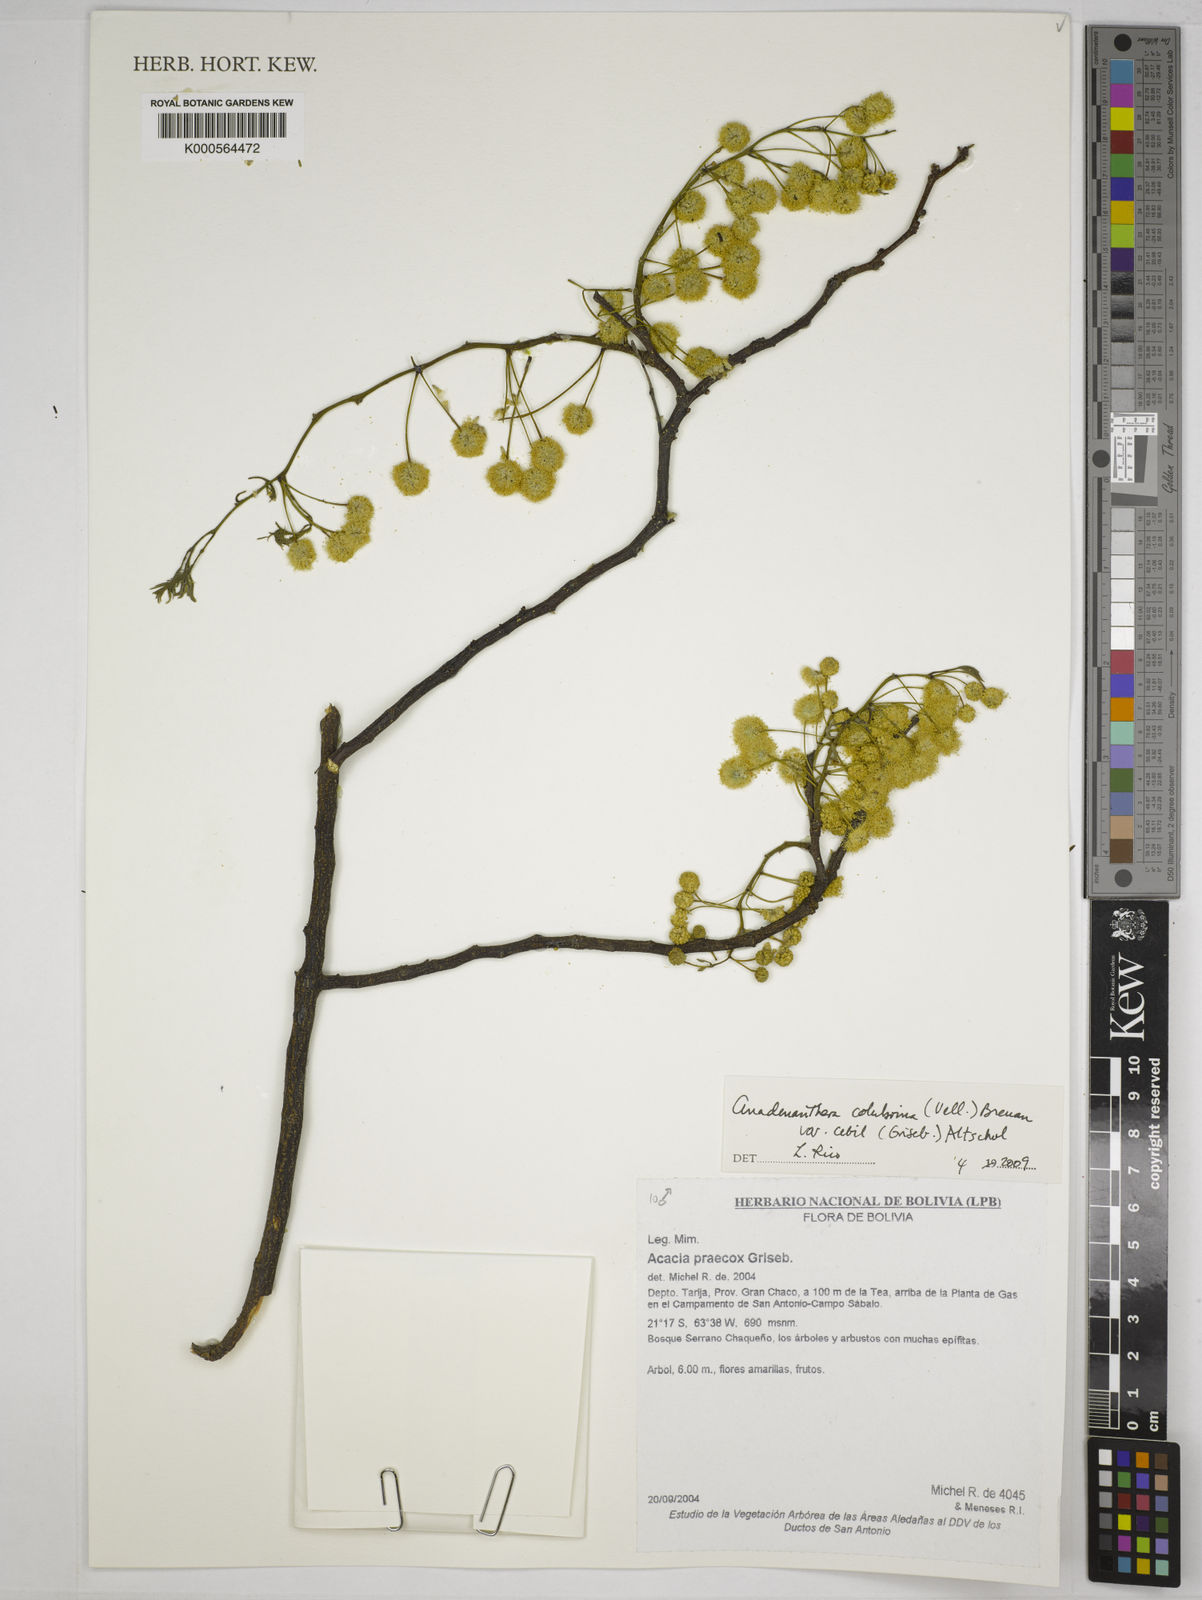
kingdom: Plantae
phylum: Tracheophyta
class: Magnoliopsida
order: Fabales
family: Fabaceae
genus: Anadenanthera
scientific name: Anadenanthera colubrina
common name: Curupay
